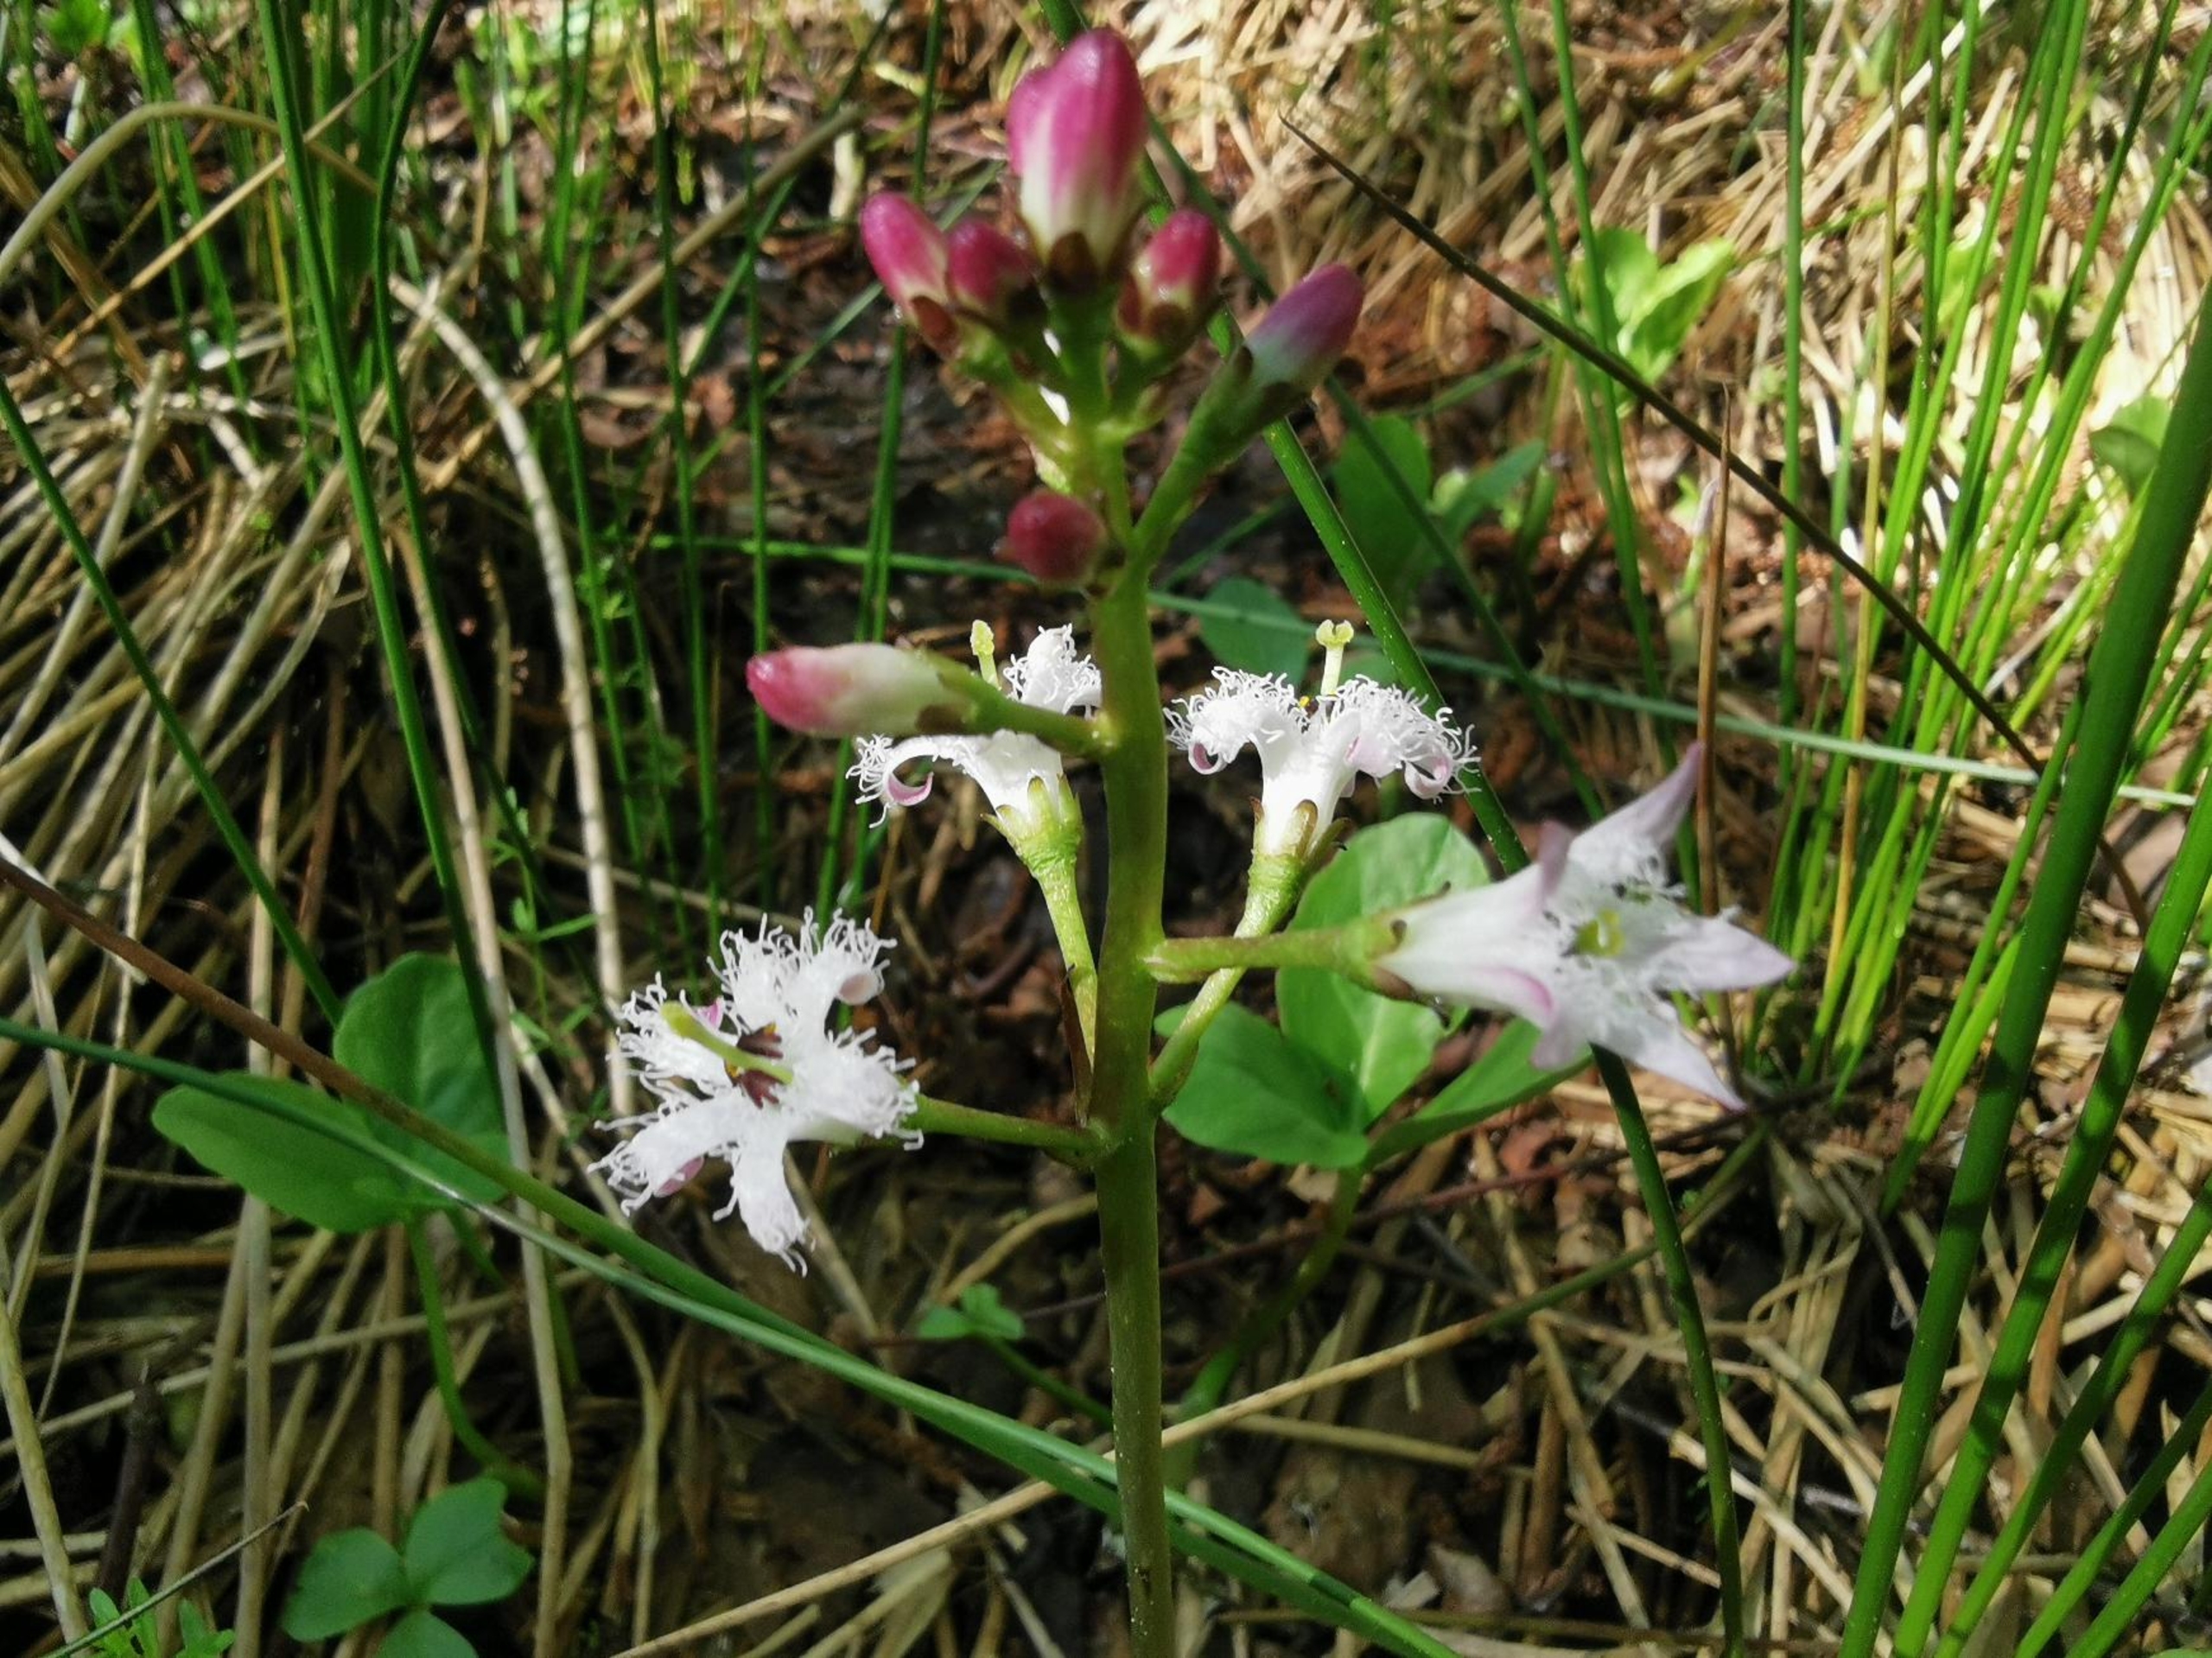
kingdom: Plantae
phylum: Tracheophyta
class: Magnoliopsida
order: Asterales
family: Menyanthaceae
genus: Menyanthes
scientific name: Menyanthes trifoliata
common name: Bukkeblad
